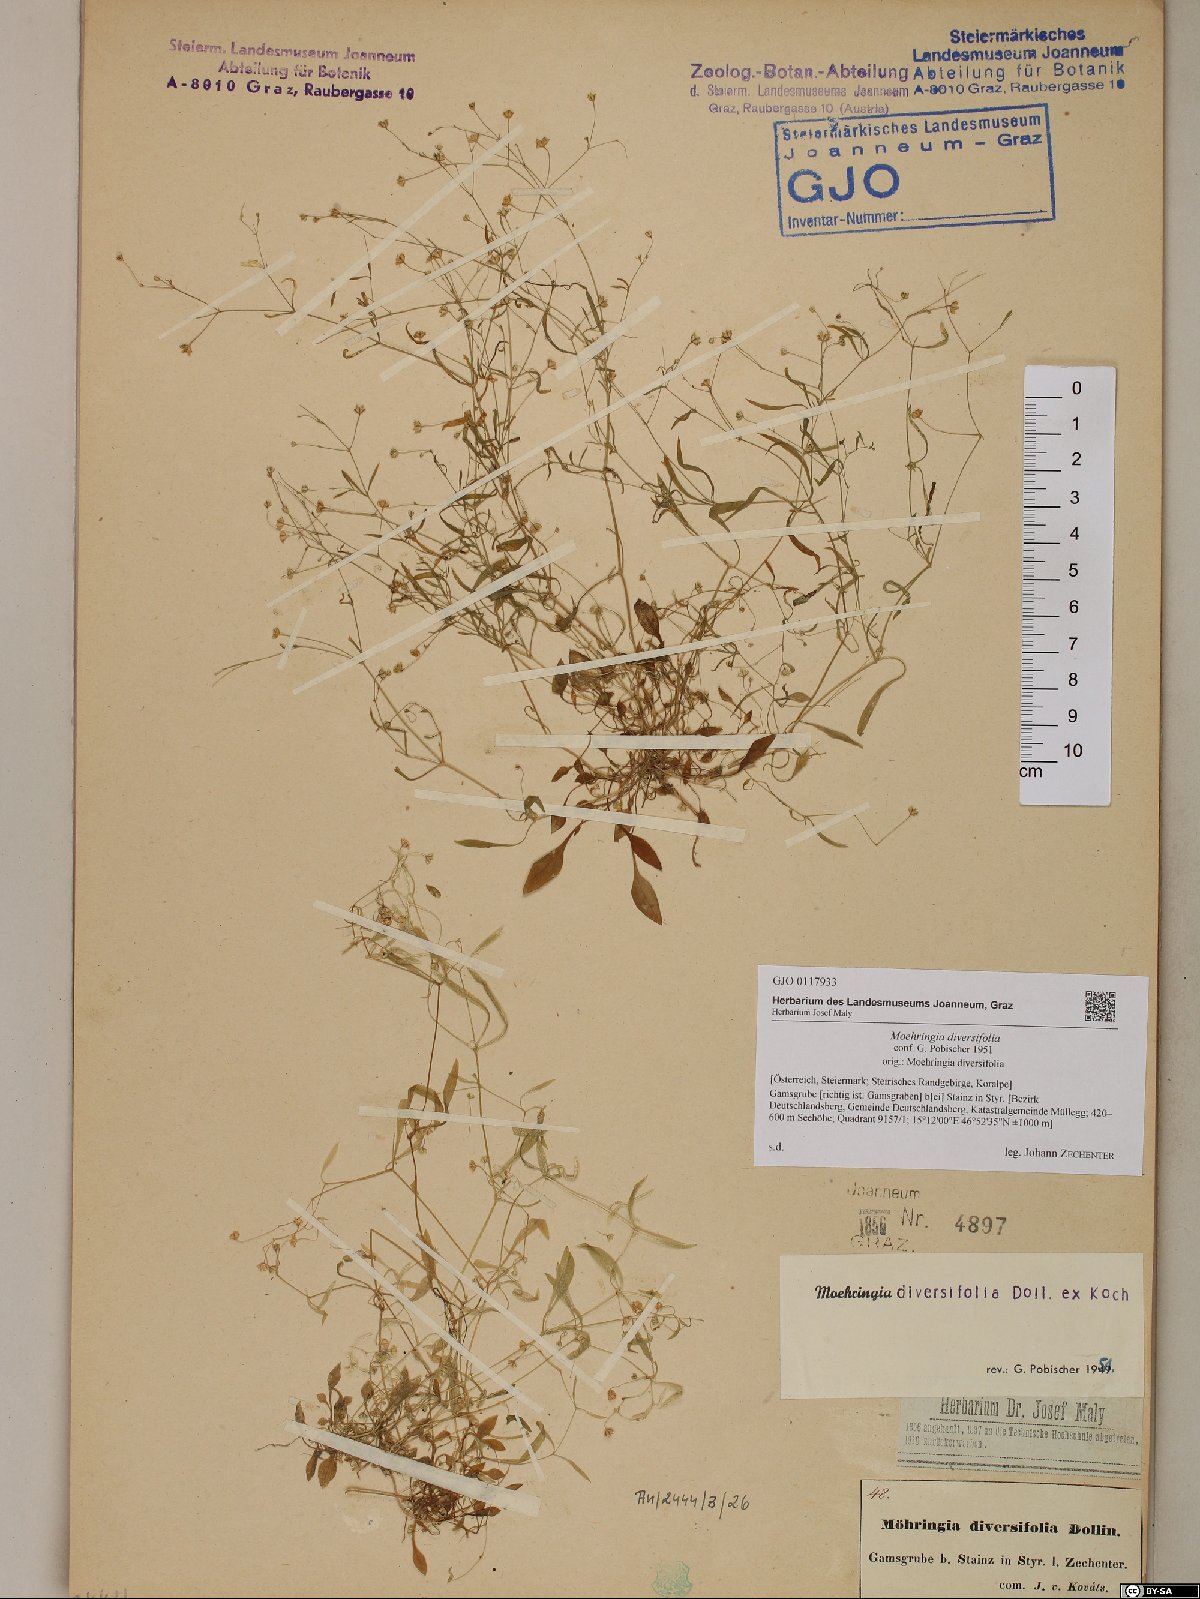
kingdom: Plantae
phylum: Tracheophyta
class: Magnoliopsida
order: Caryophyllales
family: Caryophyllaceae
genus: Moehringia
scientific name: Moehringia diversifolia
